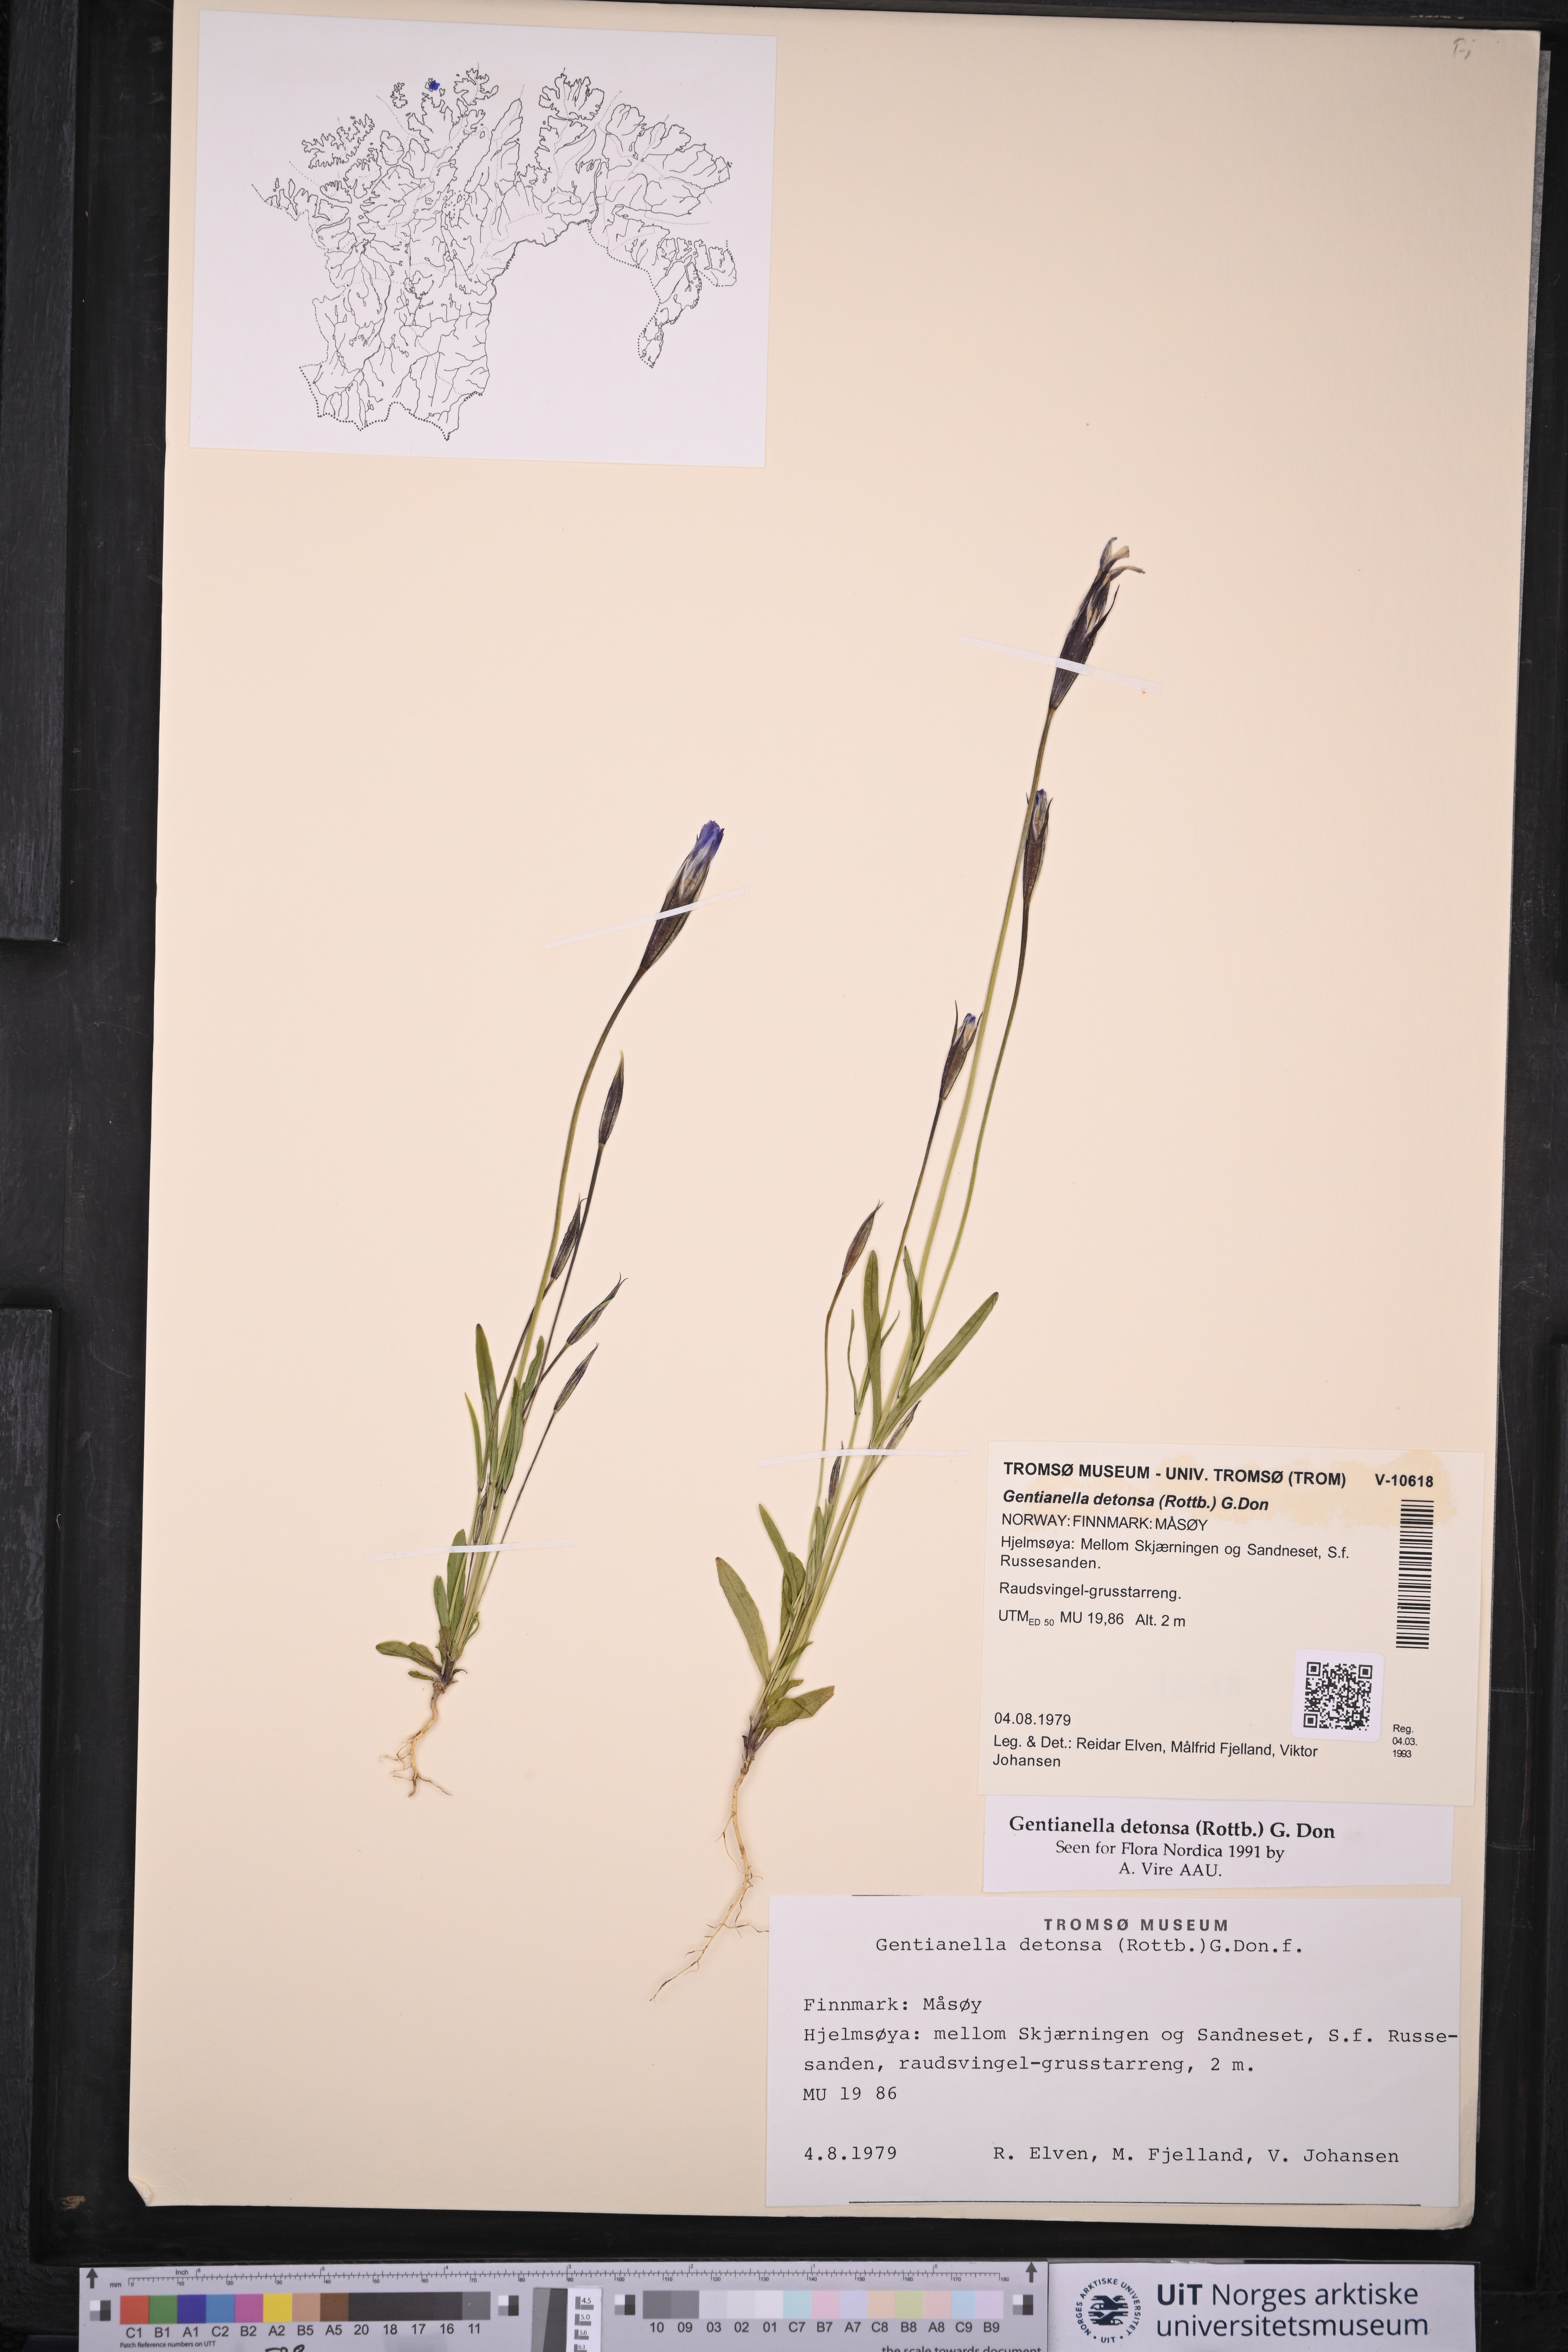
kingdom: Plantae
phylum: Tracheophyta
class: Magnoliopsida
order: Gentianales
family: Gentianaceae
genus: Gentianopsis
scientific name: Gentianopsis detonsa
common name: Fringed-gentian
